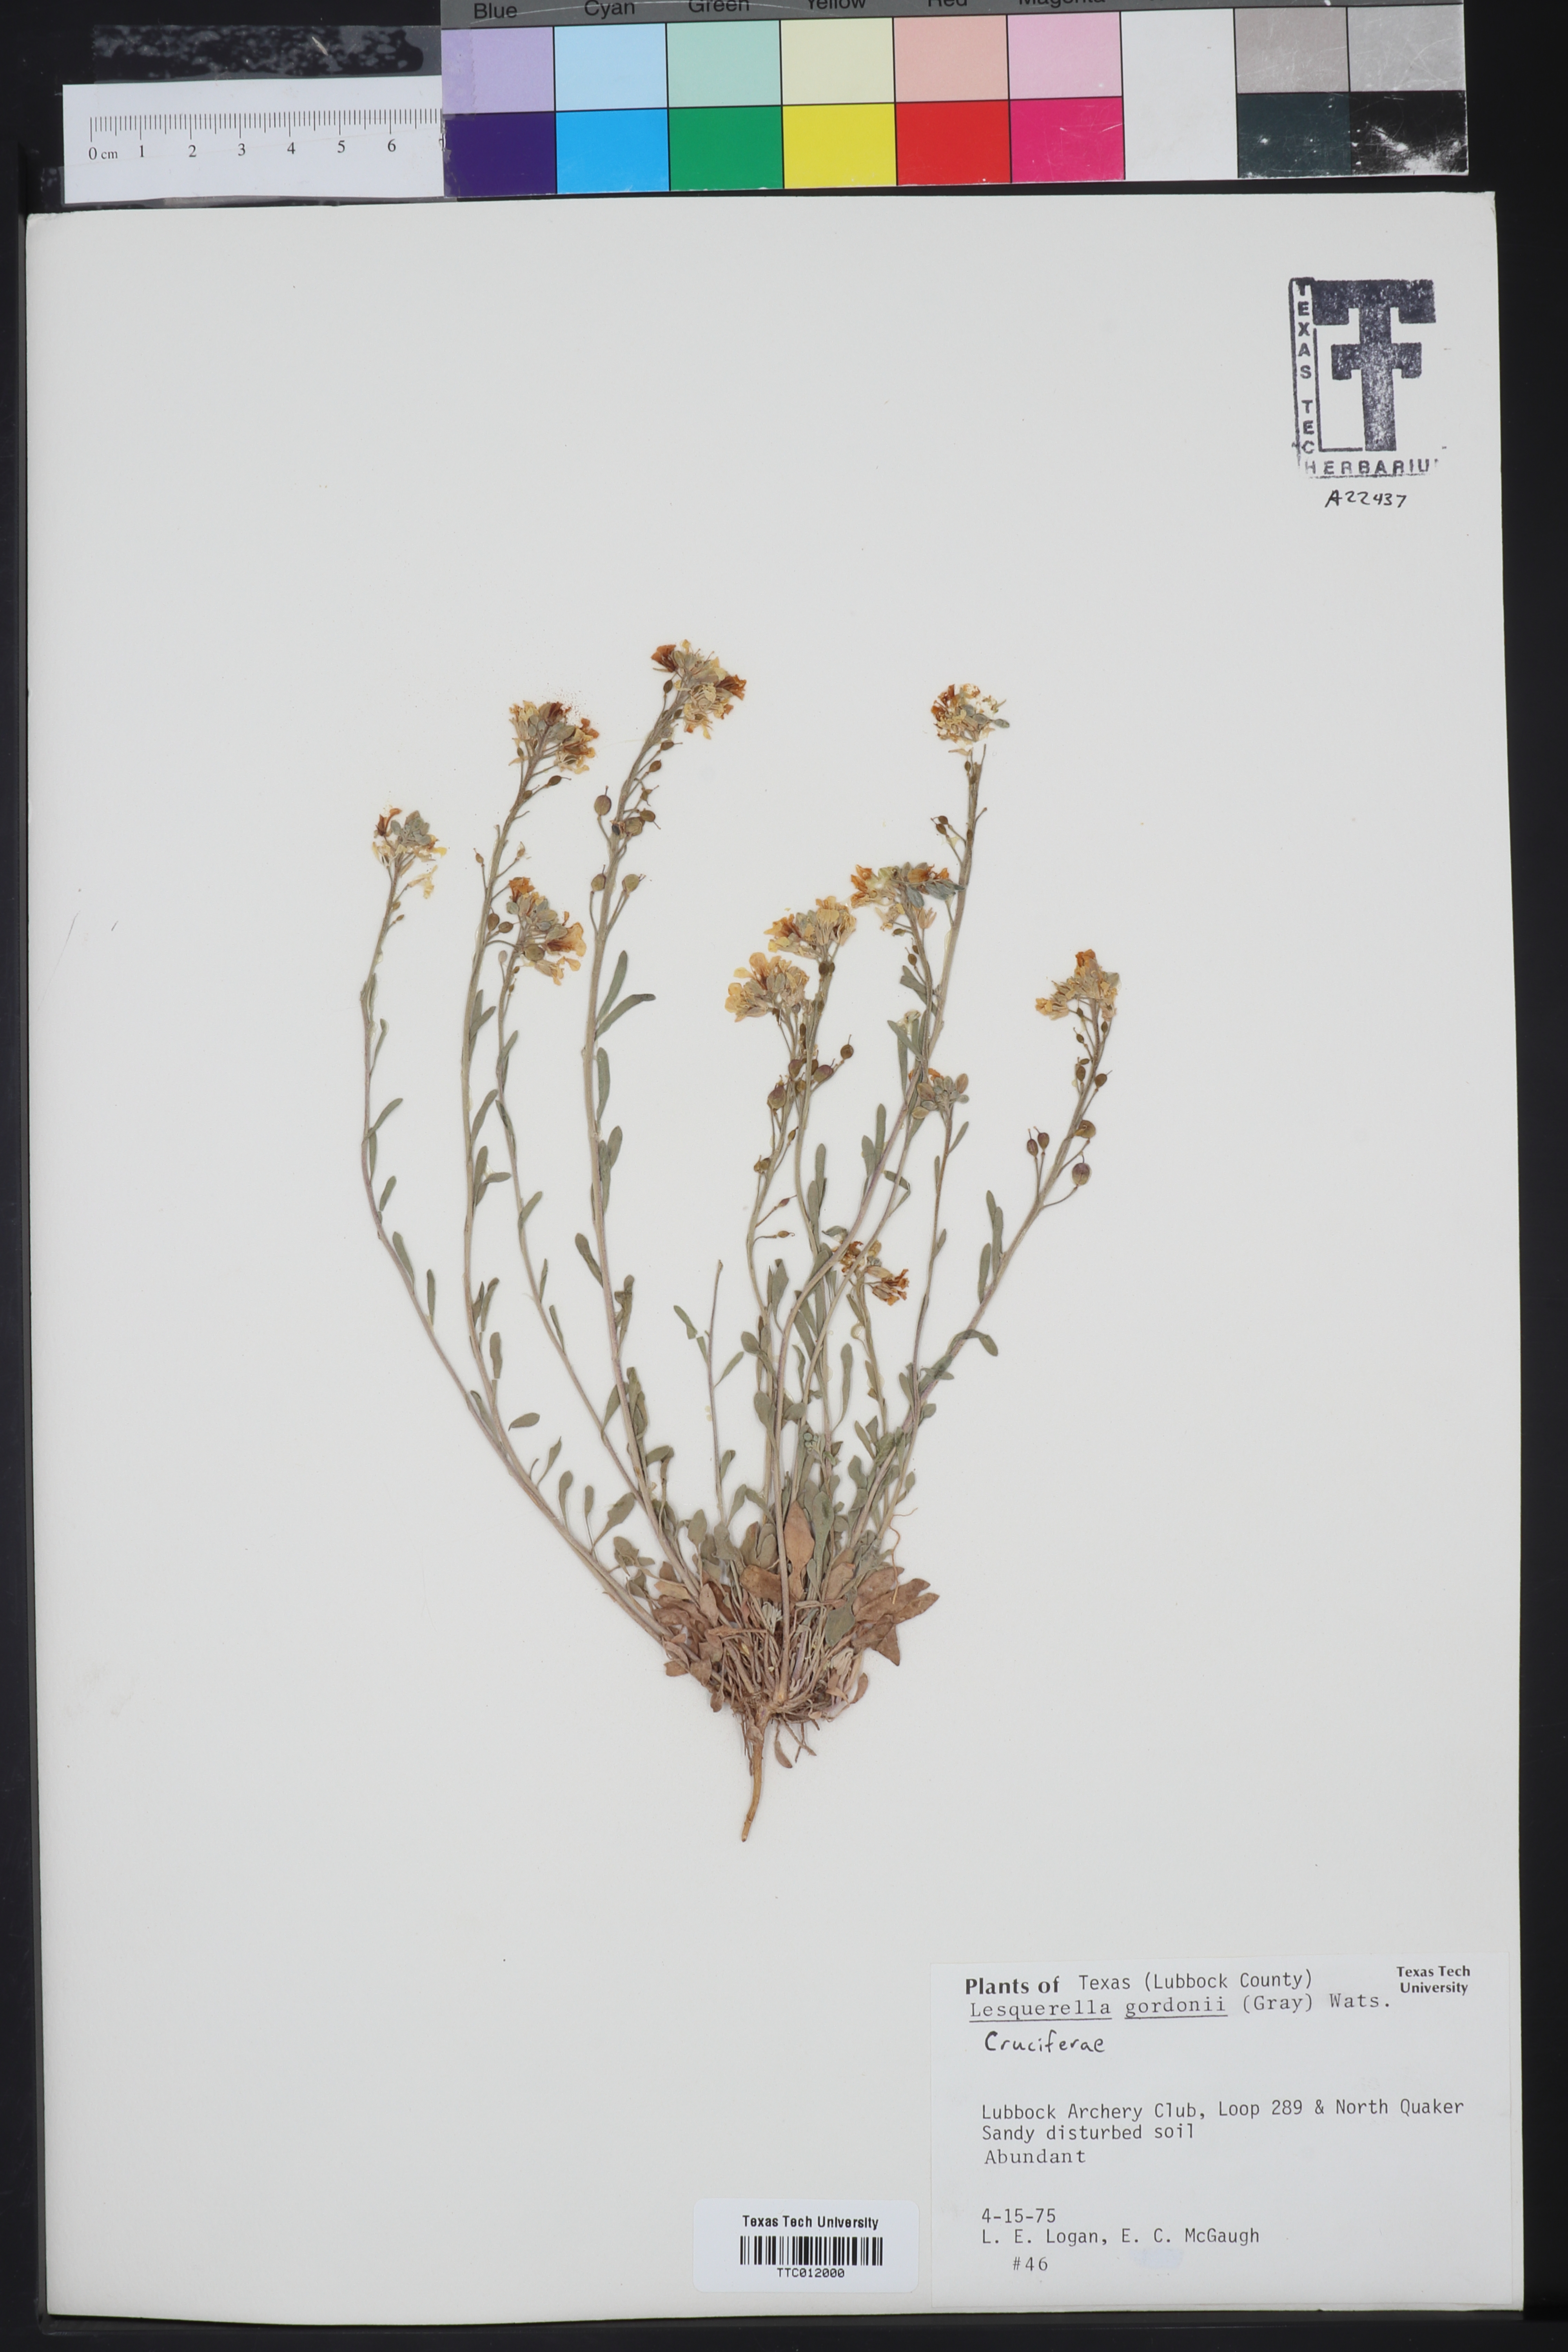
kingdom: Plantae
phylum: Tracheophyta
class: Magnoliopsida
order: Brassicales
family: Brassicaceae
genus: Physaria
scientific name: Physaria gordonii
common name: Gordon's bladderpod
